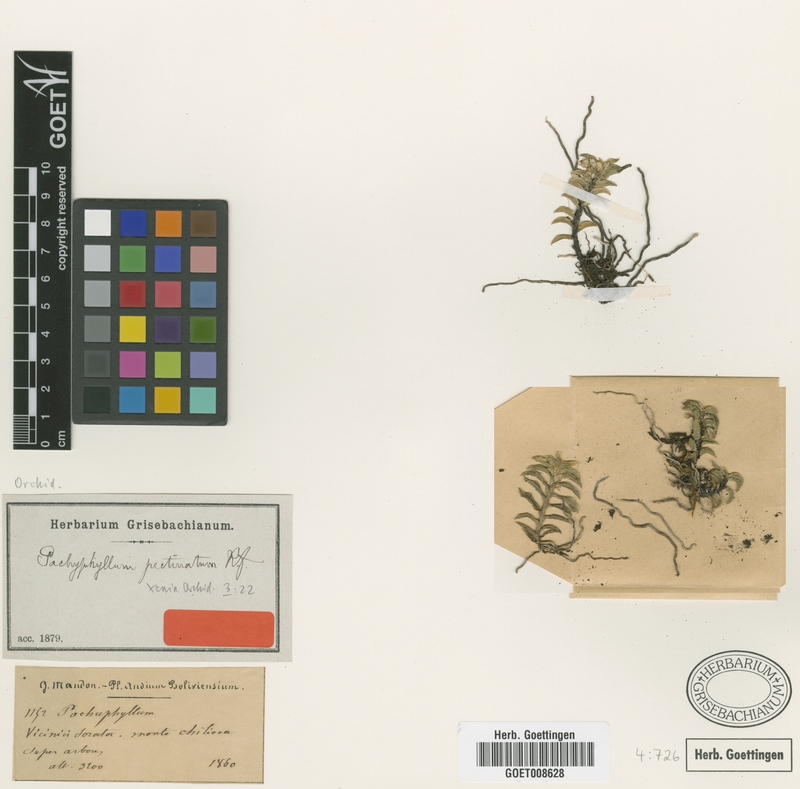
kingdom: Plantae
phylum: Tracheophyta
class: Liliopsida
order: Asparagales
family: Orchidaceae
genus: Fernandezia
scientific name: Fernandezia pectinata
